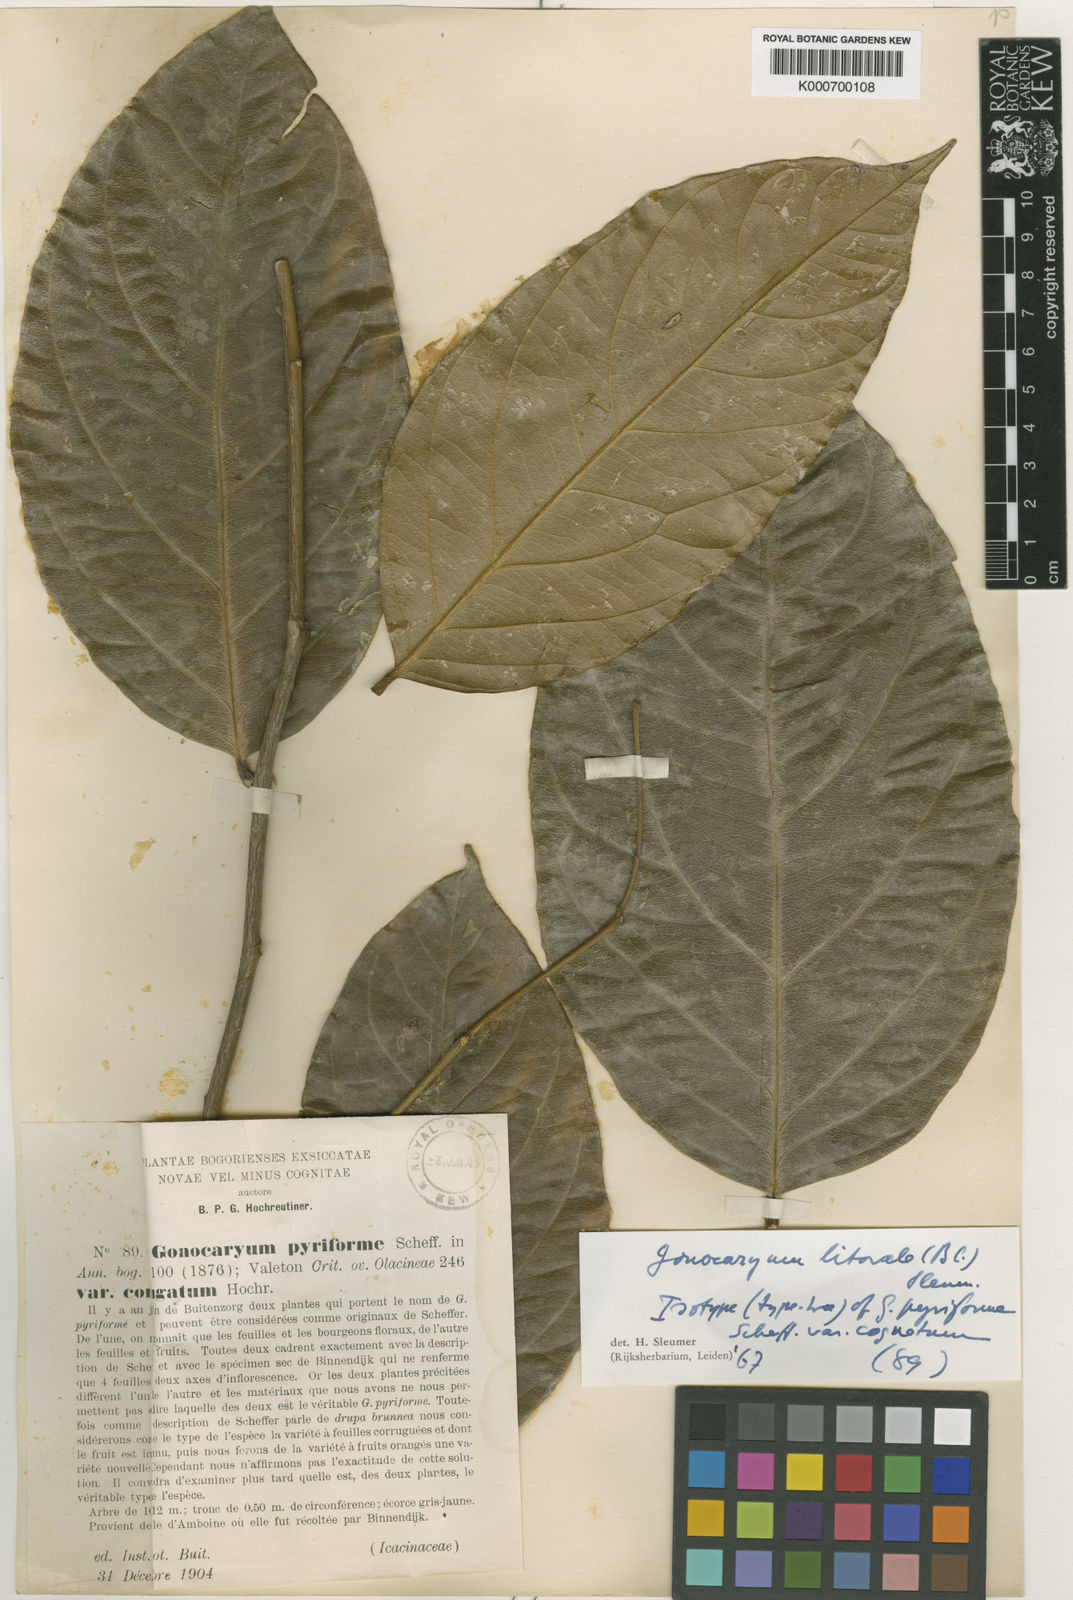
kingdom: Plantae
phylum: Tracheophyta
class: Magnoliopsida
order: Cardiopteridales
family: Cardiopteridaceae
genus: Gonocaryum
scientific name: Gonocaryum litorale
